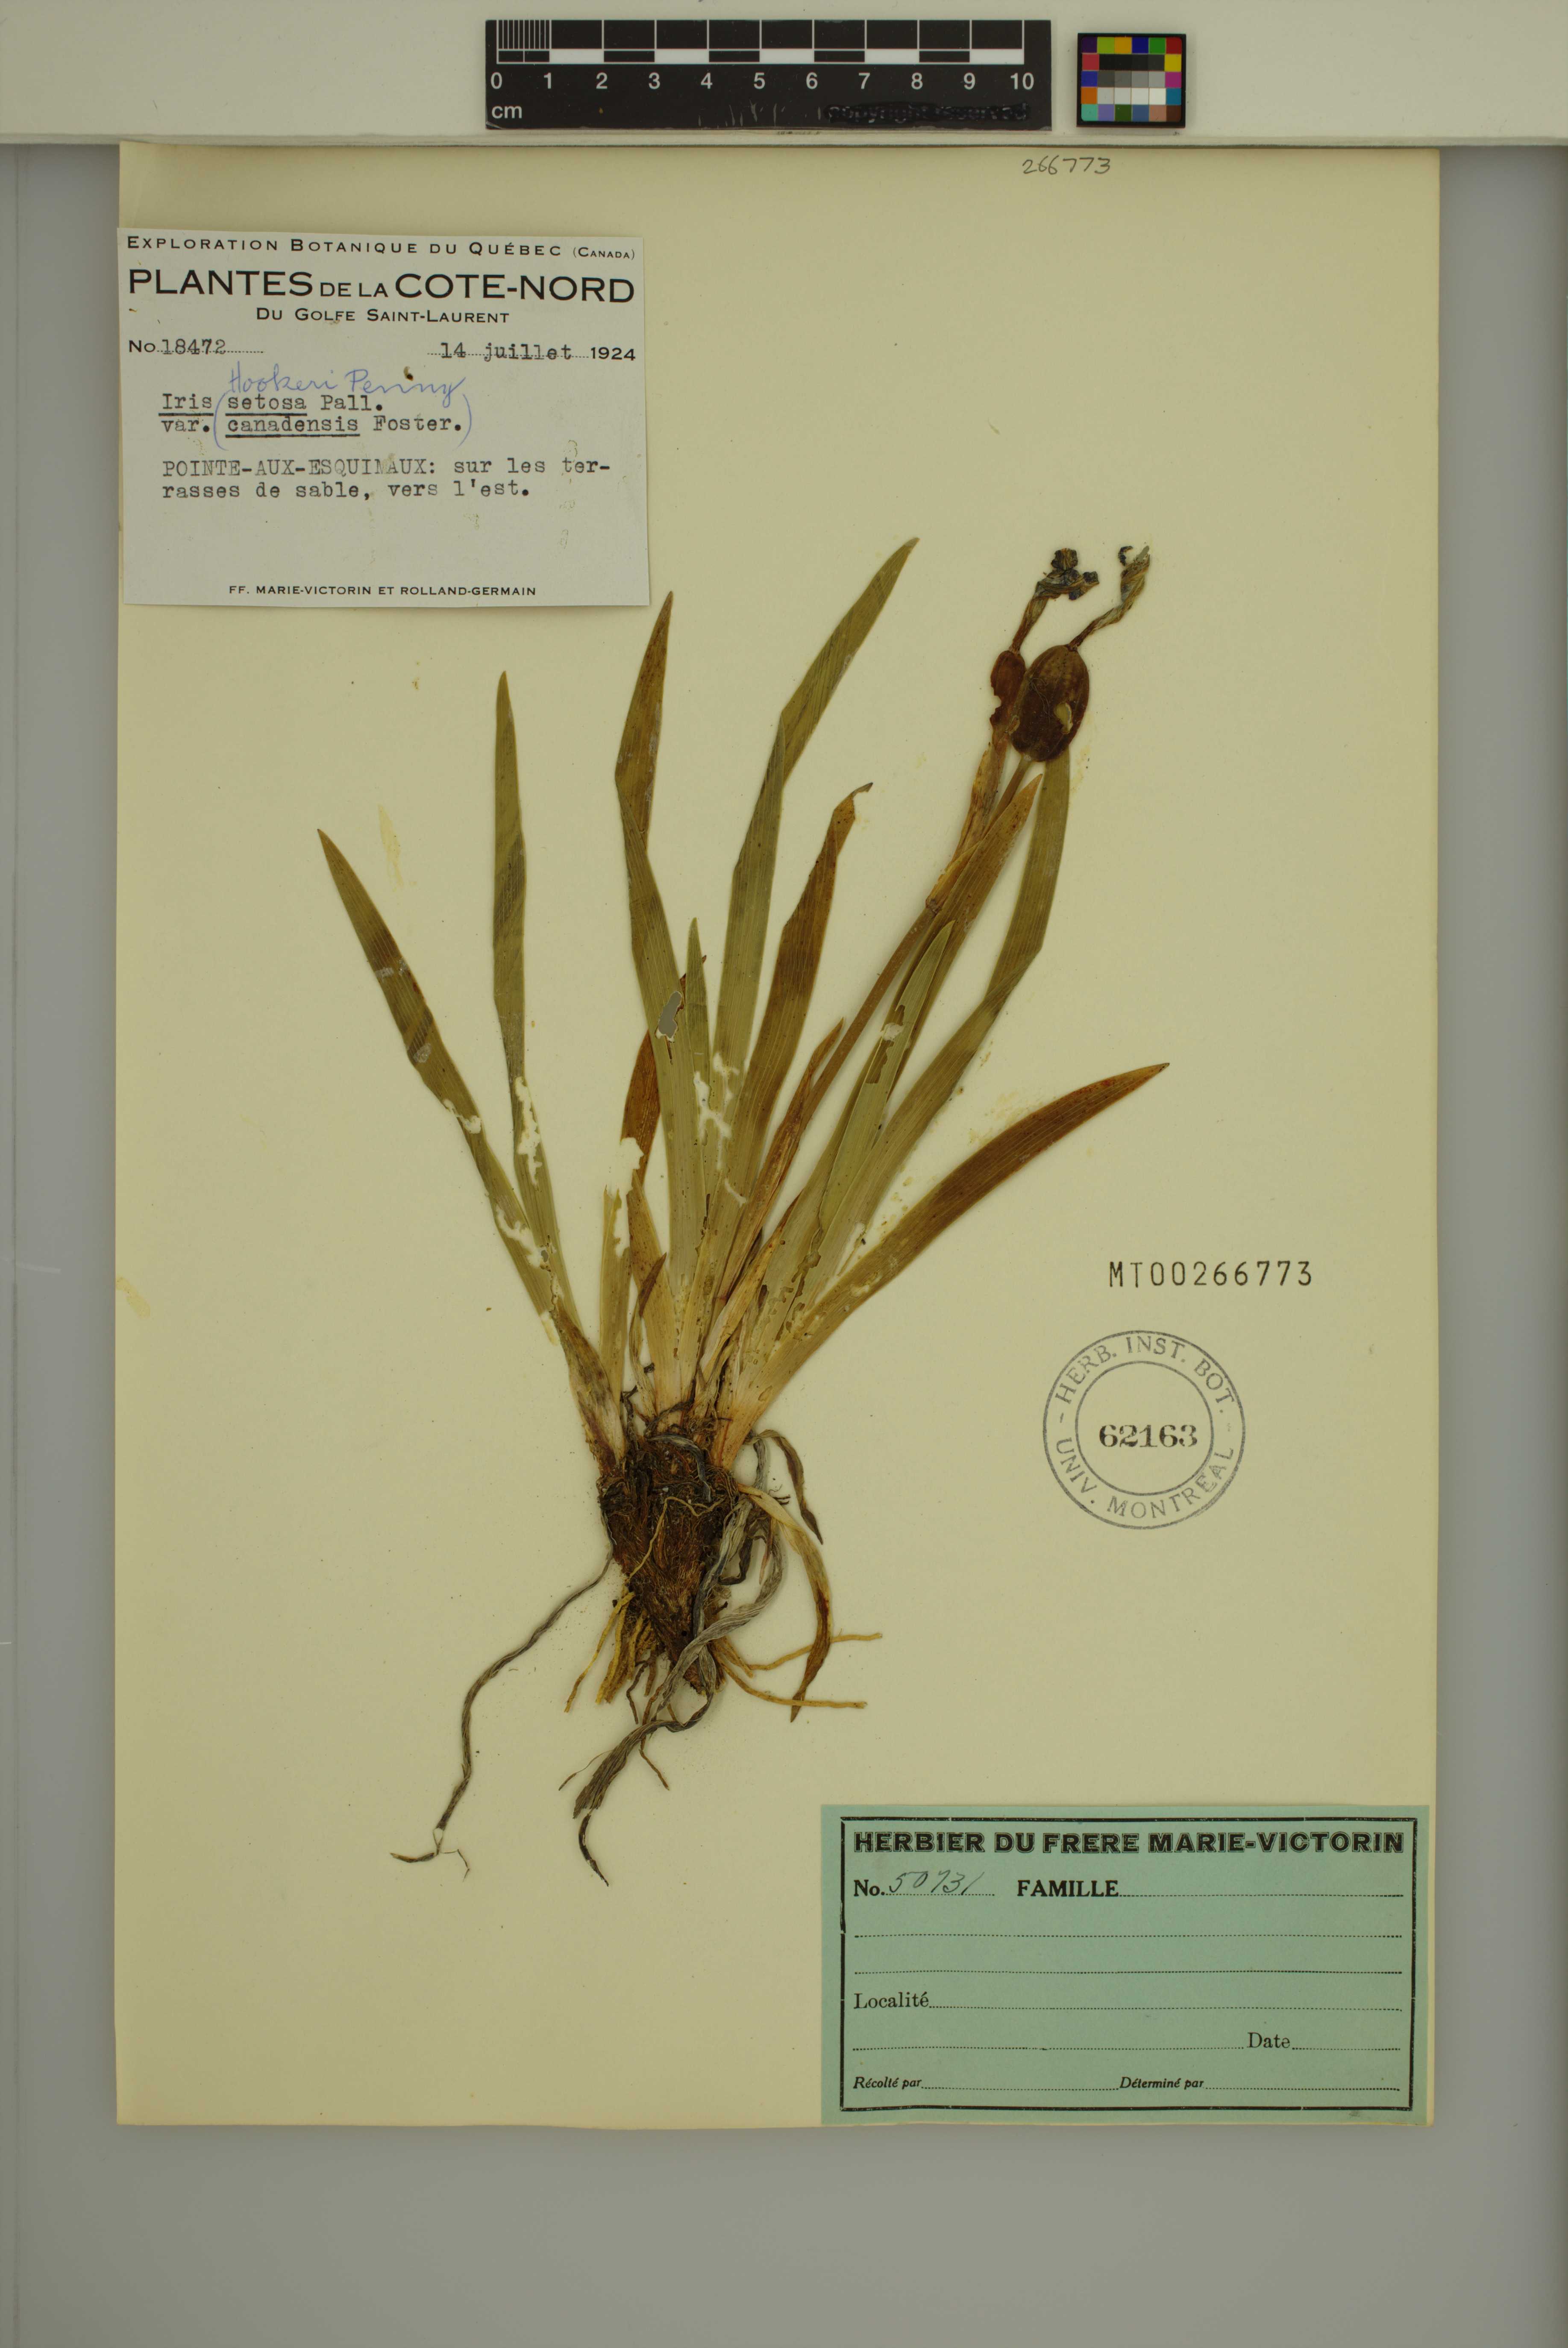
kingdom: Plantae
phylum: Tracheophyta
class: Liliopsida
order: Asparagales
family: Iridaceae
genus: Iris
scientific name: Iris hookeri
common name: Canada beach-head iris
